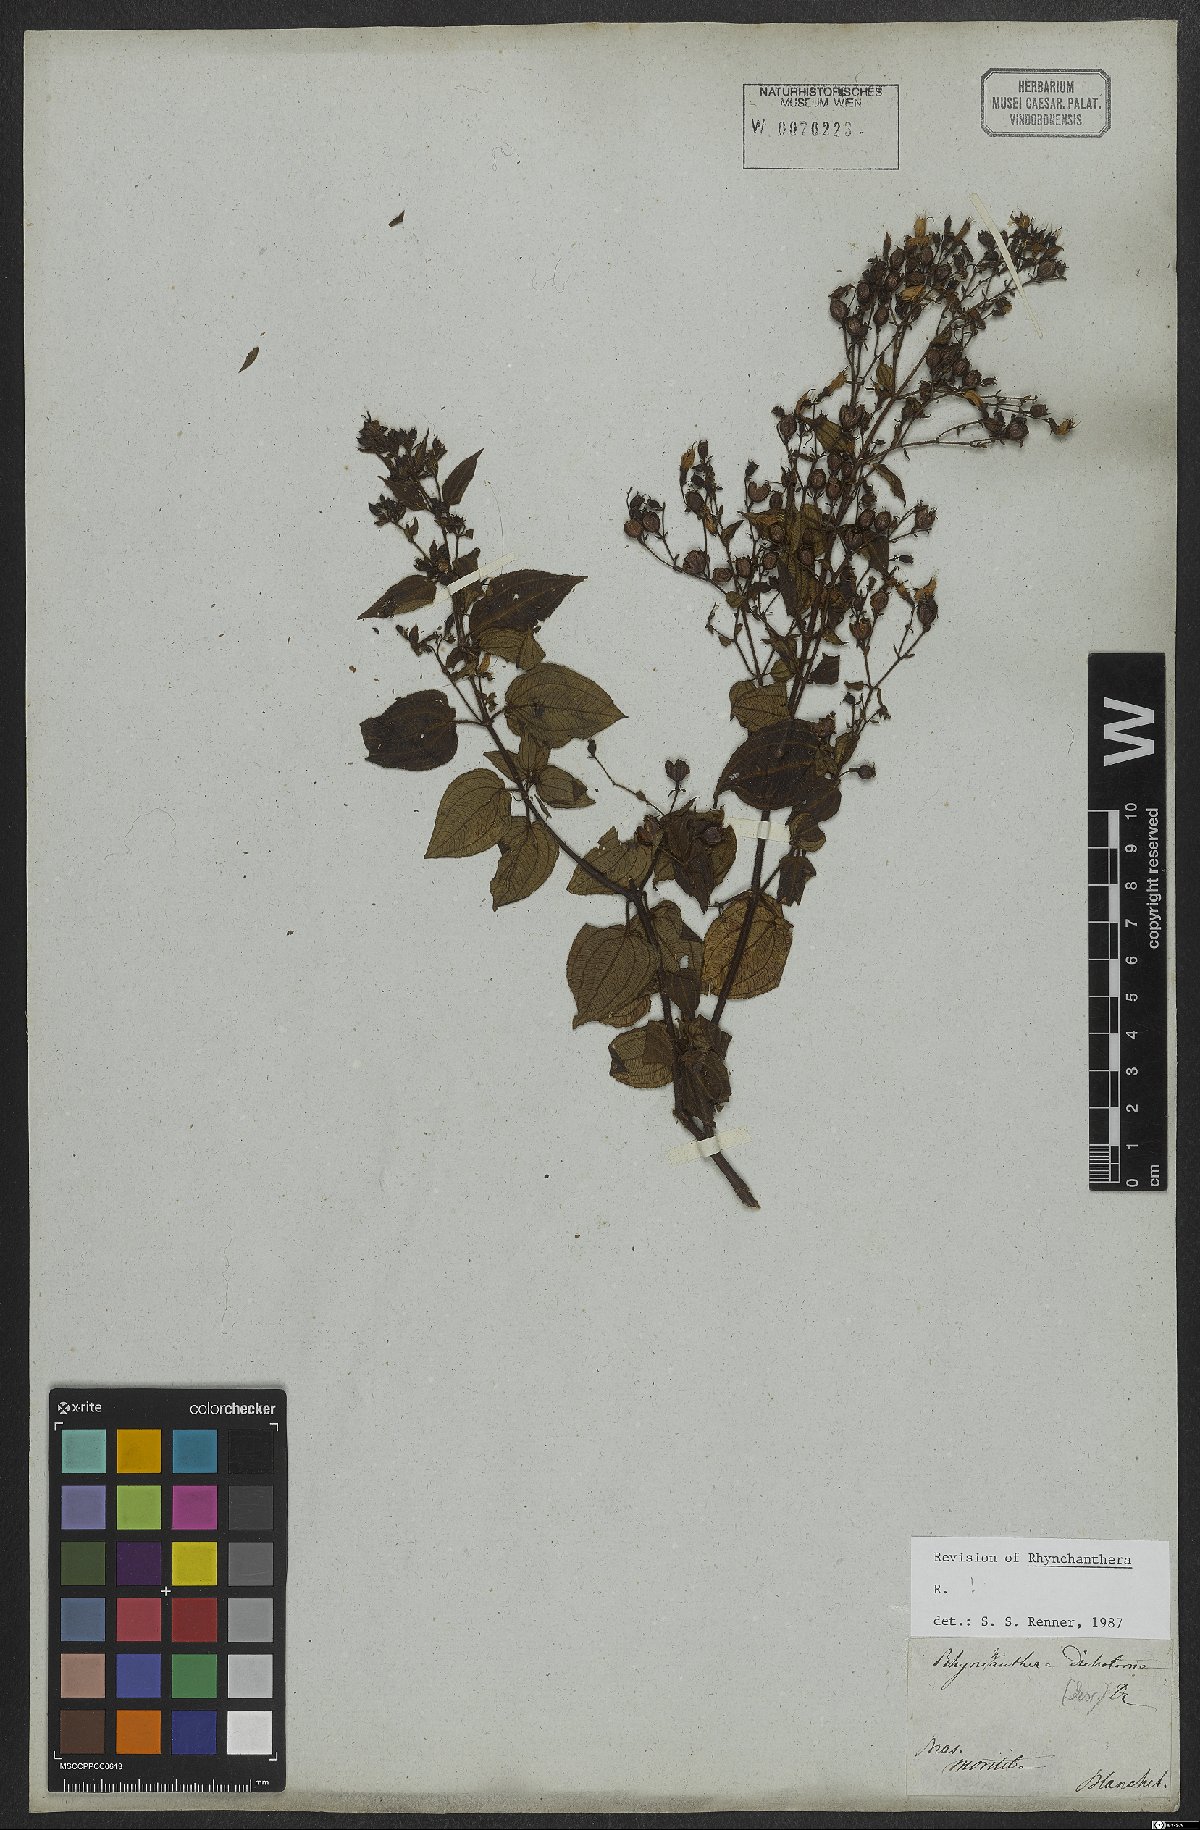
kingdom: Plantae
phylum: Tracheophyta
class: Magnoliopsida
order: Myrtales
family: Melastomataceae
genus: Rhynchanthera
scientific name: Rhynchanthera dichotoma
